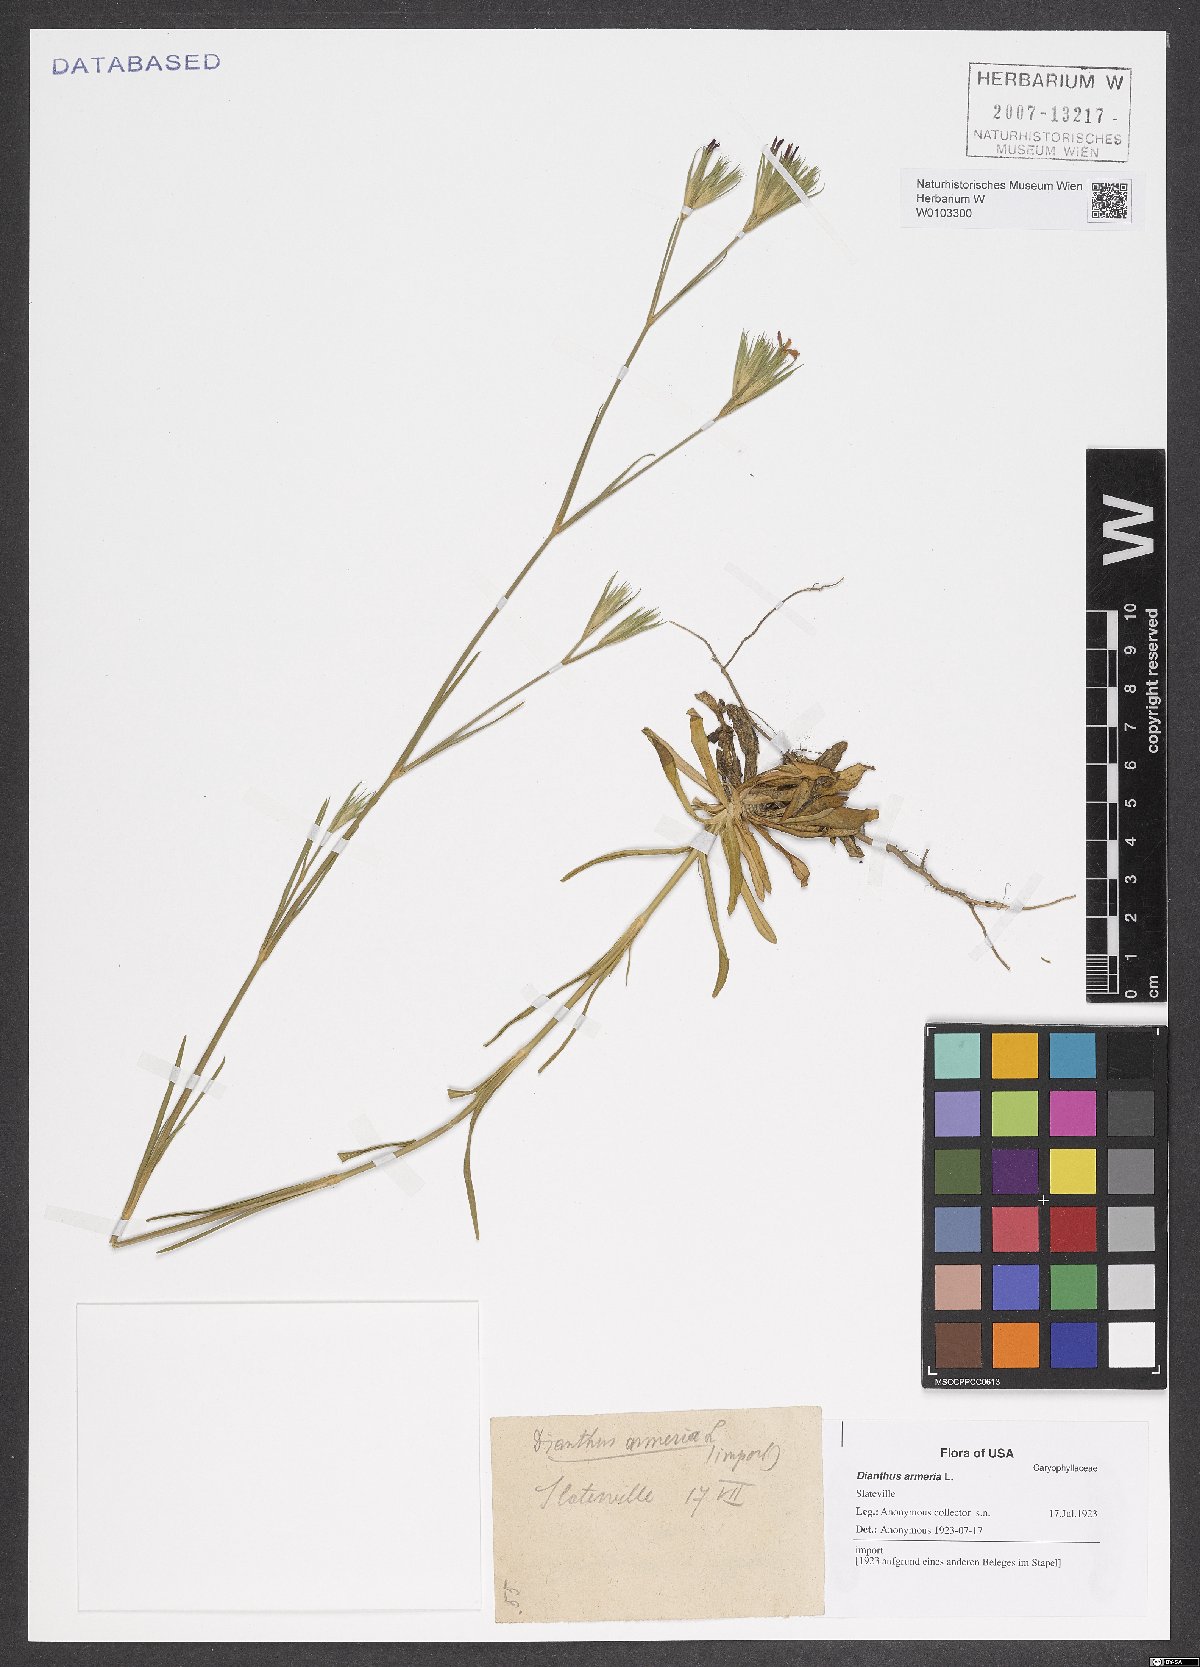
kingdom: Plantae
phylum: Tracheophyta
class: Magnoliopsida
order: Caryophyllales
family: Caryophyllaceae
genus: Dianthus
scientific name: Dianthus armeria
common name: Deptford pink
